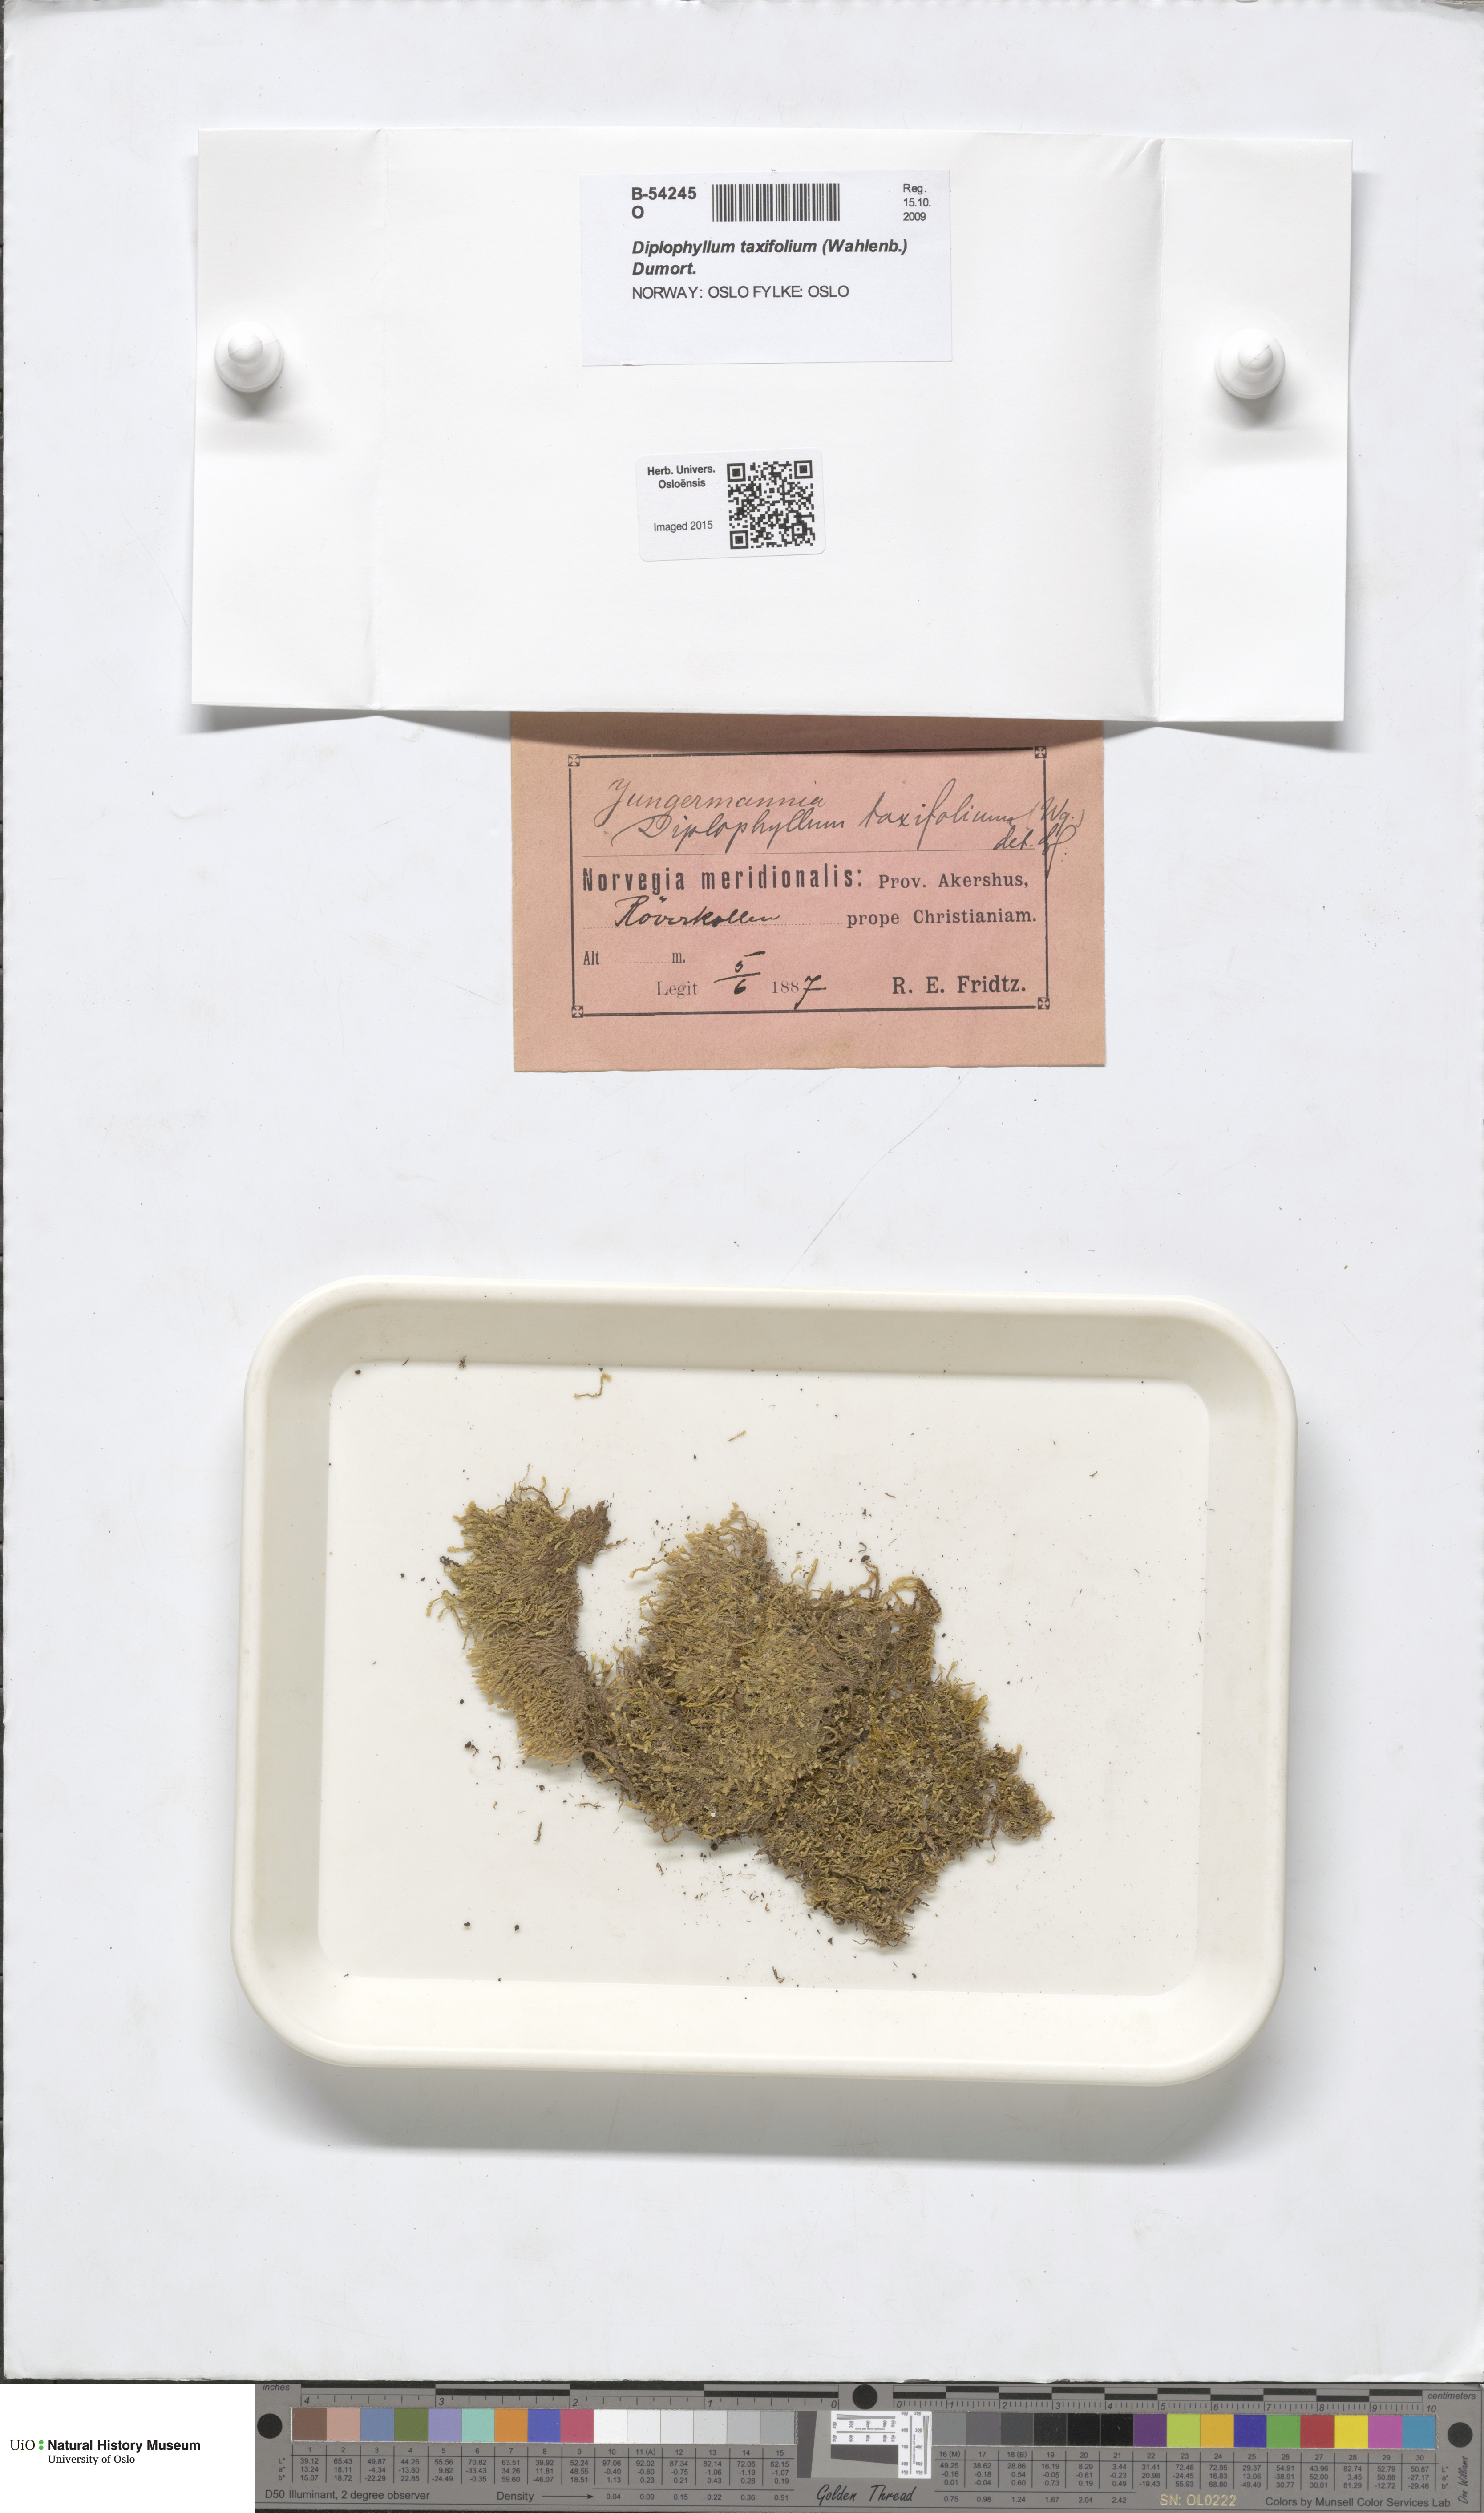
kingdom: Plantae
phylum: Marchantiophyta
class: Jungermanniopsida
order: Jungermanniales
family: Scapaniaceae
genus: Diplophyllum
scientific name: Diplophyllum taxifolium
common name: Alpine earwort
